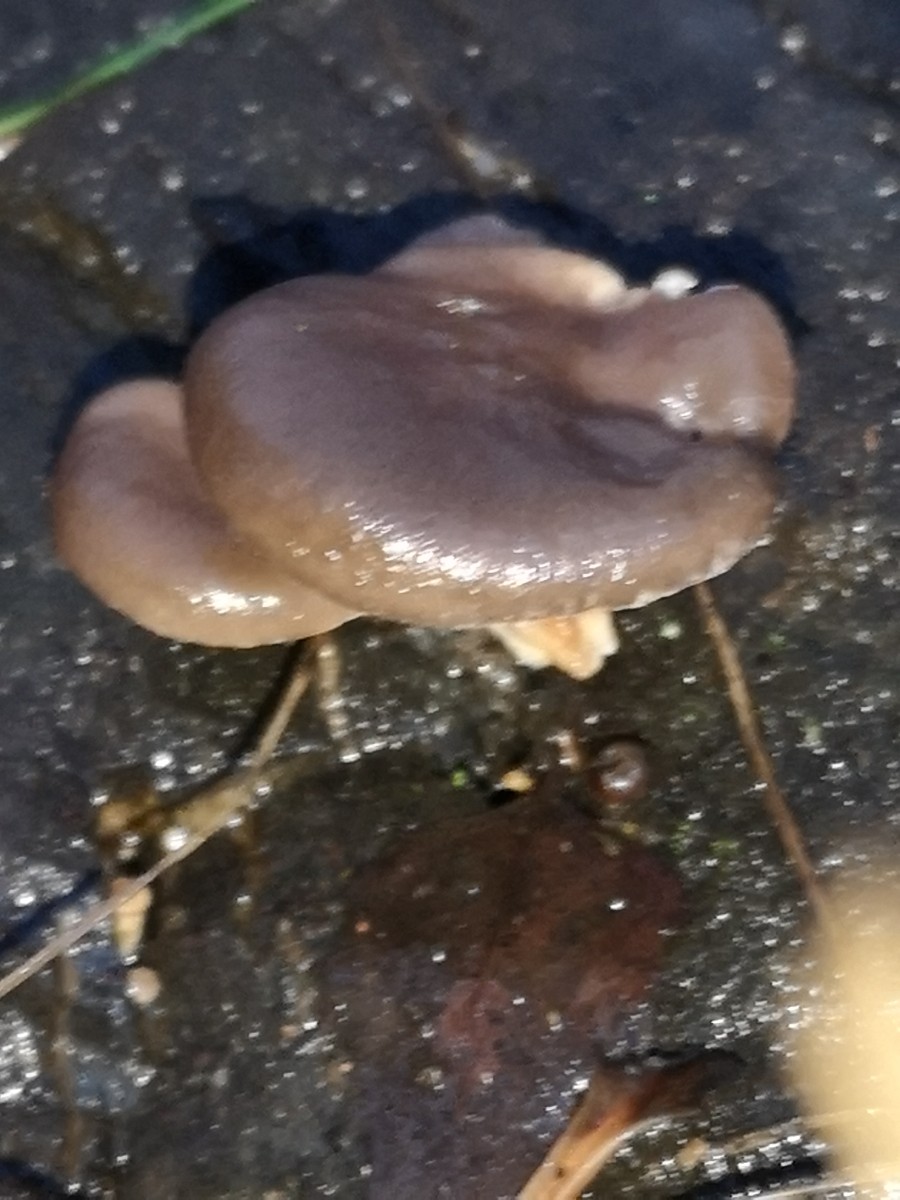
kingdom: Fungi
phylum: Basidiomycota
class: Agaricomycetes
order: Agaricales
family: Pleurotaceae
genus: Pleurotus
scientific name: Pleurotus ostreatus
